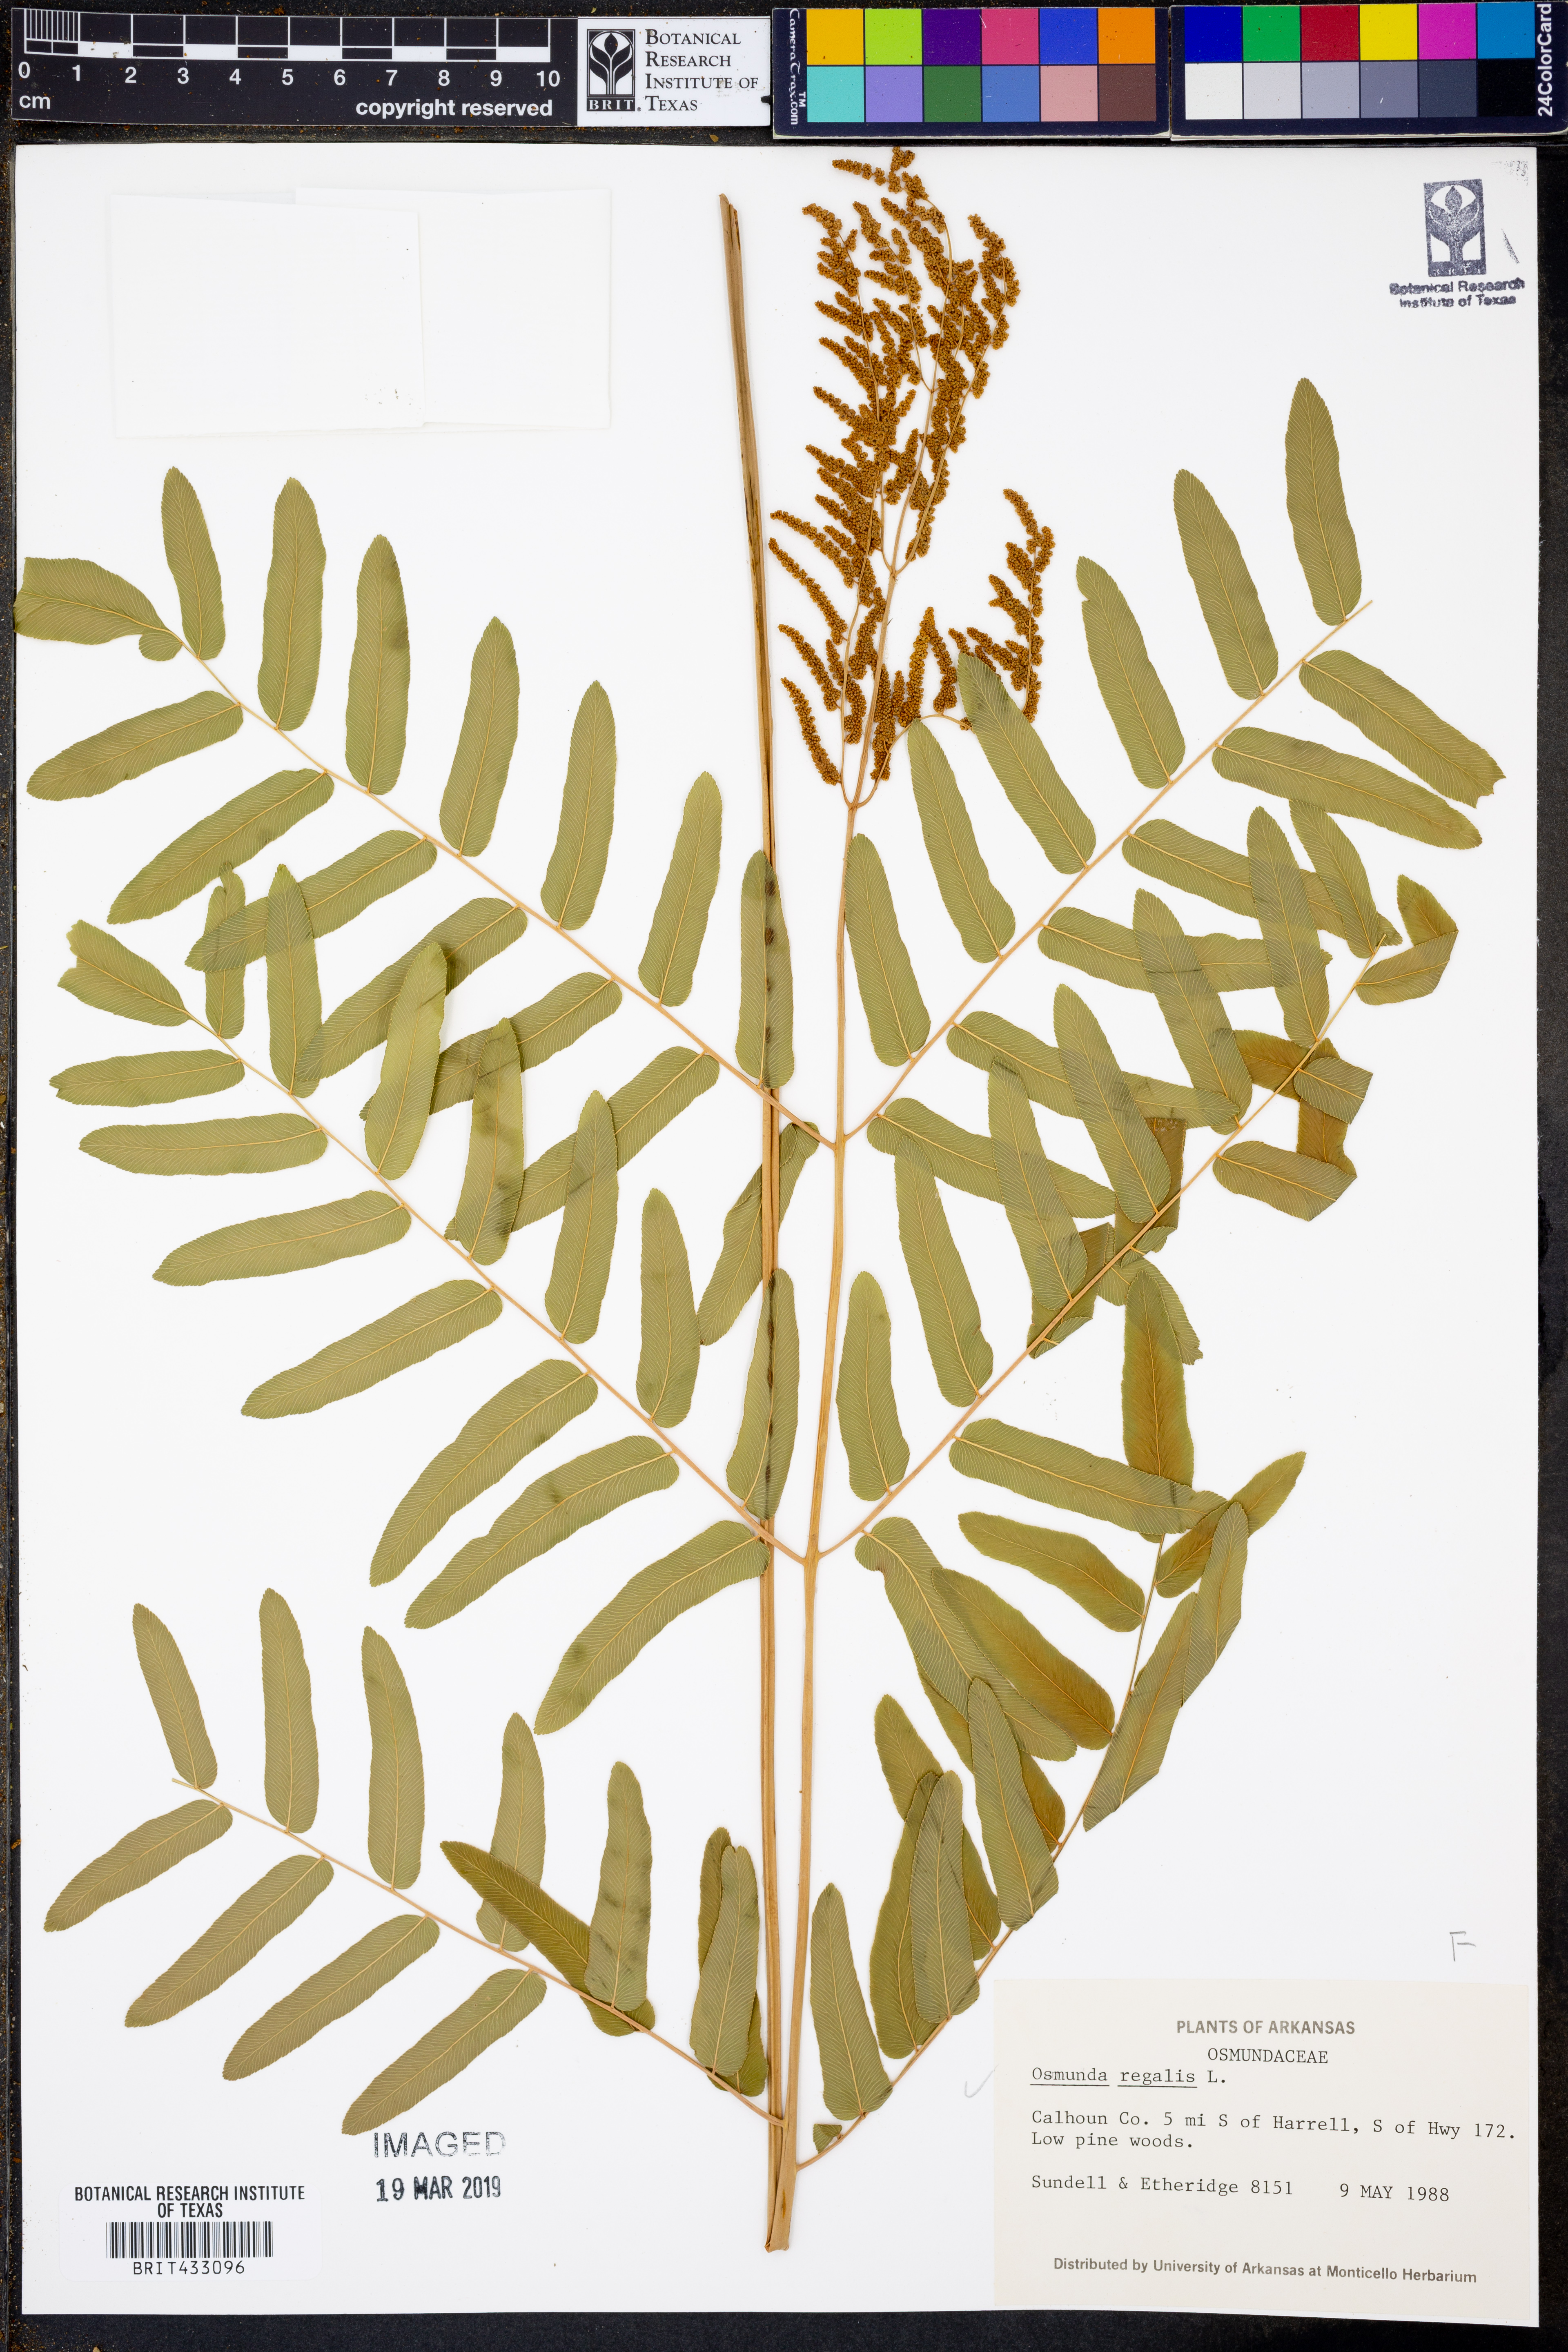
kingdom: Plantae
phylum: Tracheophyta
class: Polypodiopsida
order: Osmundales
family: Osmundaceae
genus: Osmunda
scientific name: Osmunda regalis
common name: Royal fern
